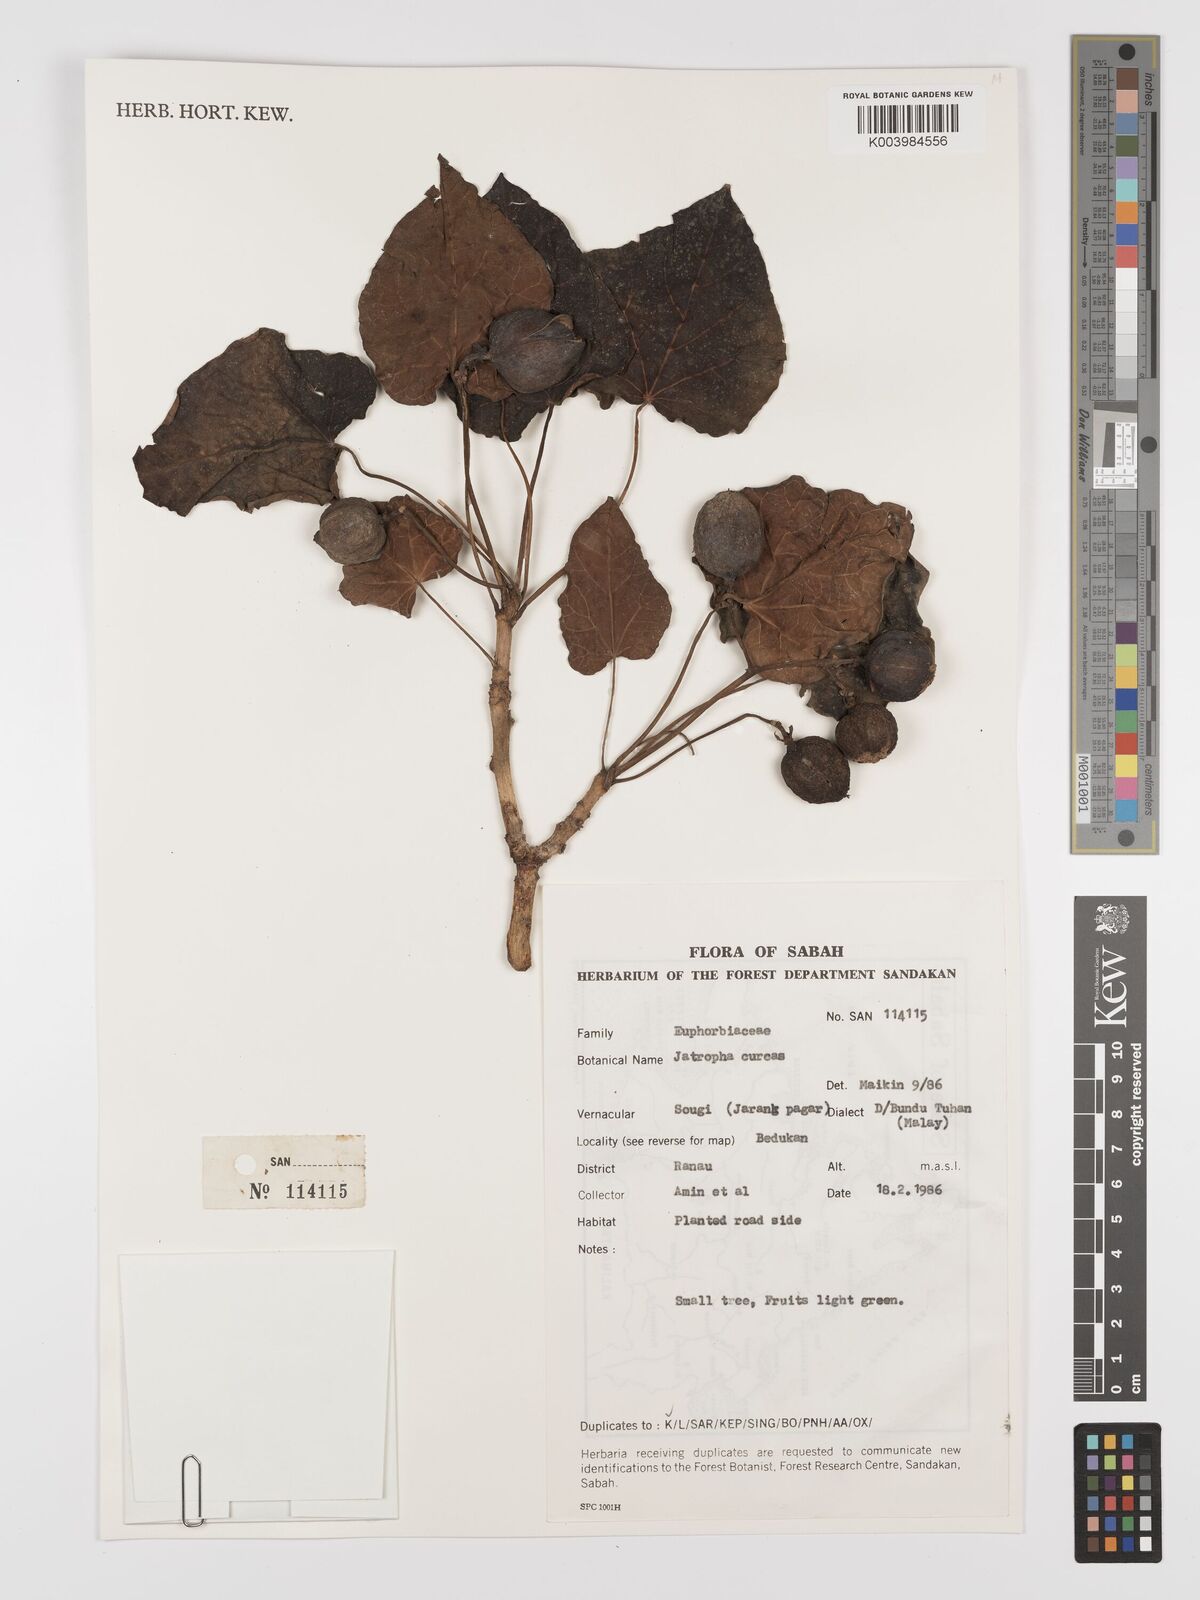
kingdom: Plantae
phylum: Tracheophyta
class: Magnoliopsida
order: Malpighiales
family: Euphorbiaceae
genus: Jatropha
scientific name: Jatropha curcas
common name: Barbados nut
